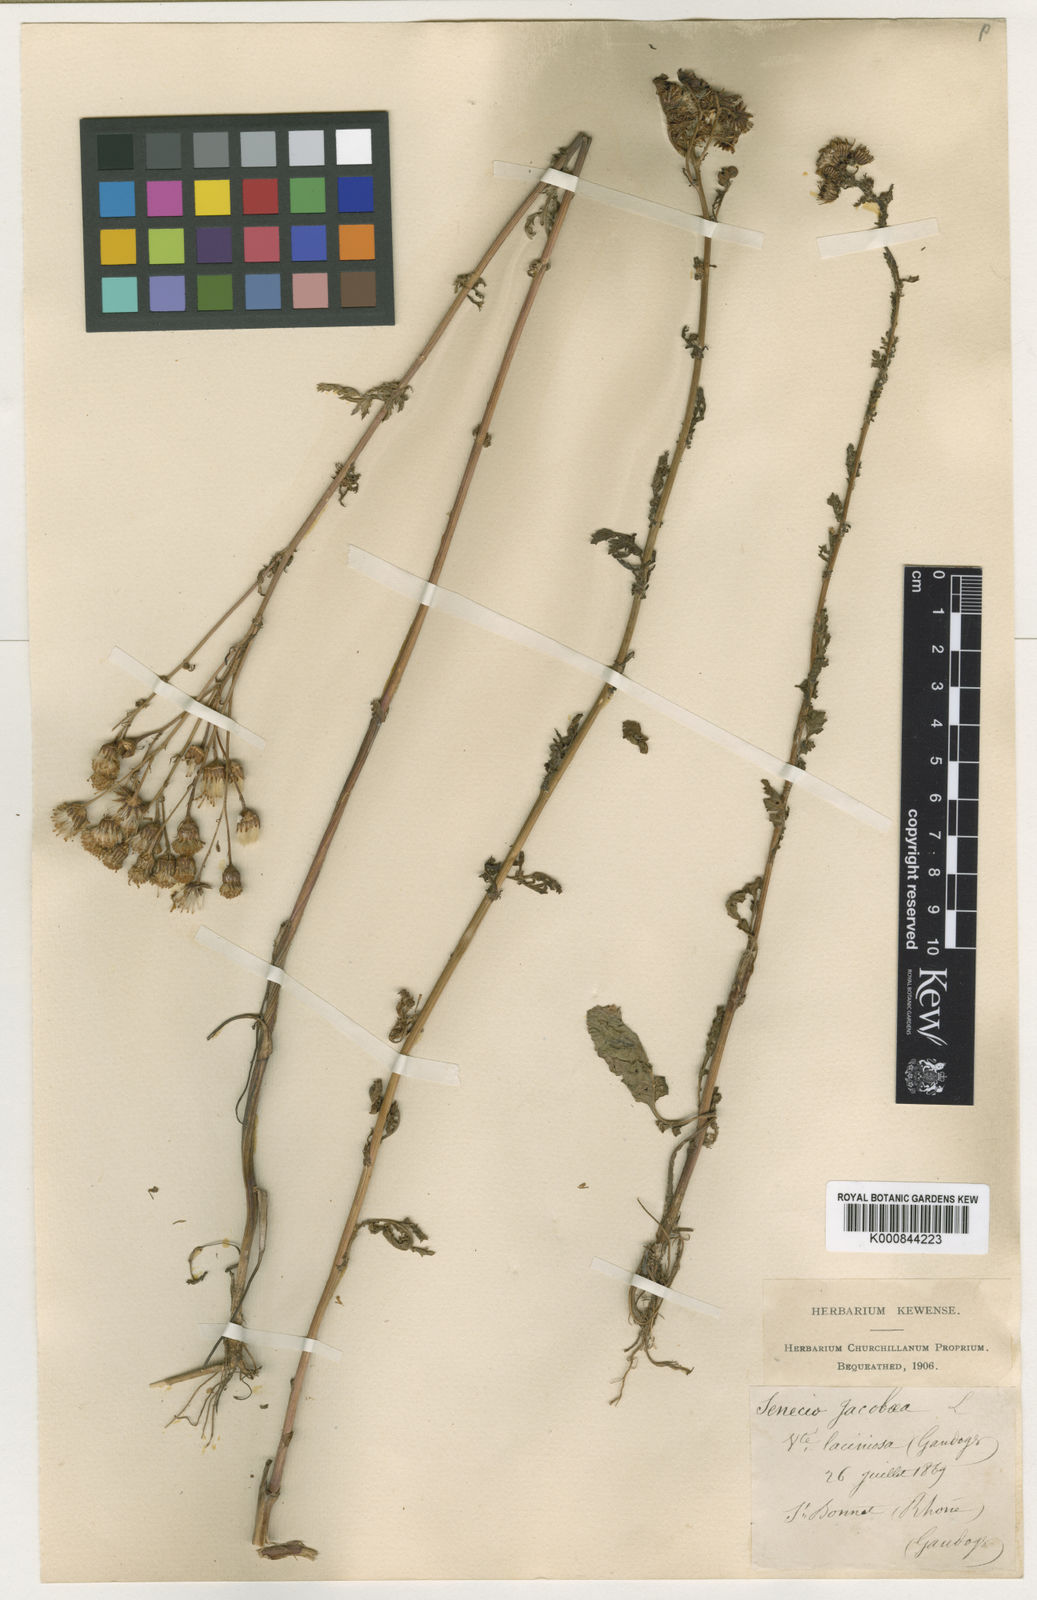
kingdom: Plantae
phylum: Tracheophyta
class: Magnoliopsida
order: Asterales
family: Asteraceae
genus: Jacobaea
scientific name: Jacobaea vulgaris
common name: Stinking willie
